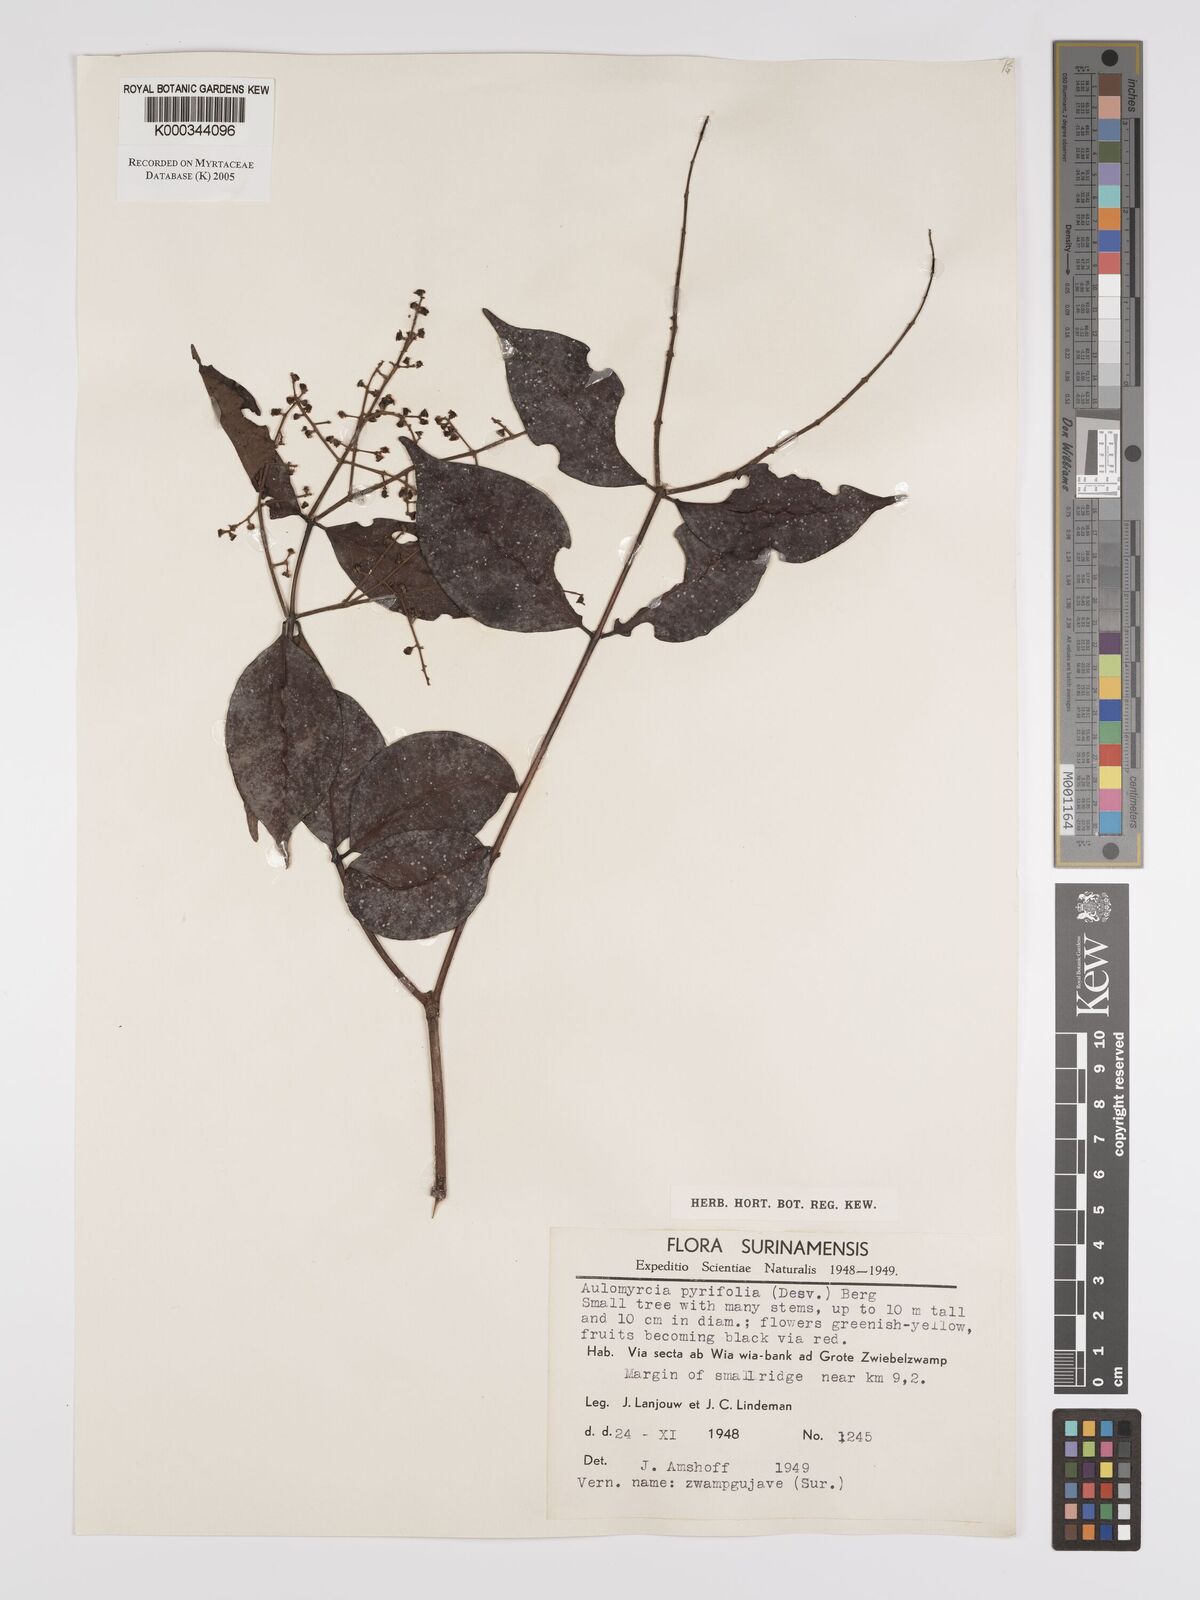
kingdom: Plantae
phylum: Tracheophyta
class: Magnoliopsida
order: Myrtales
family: Myrtaceae
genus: Myrcia
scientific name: Myrcia pyrifolia
